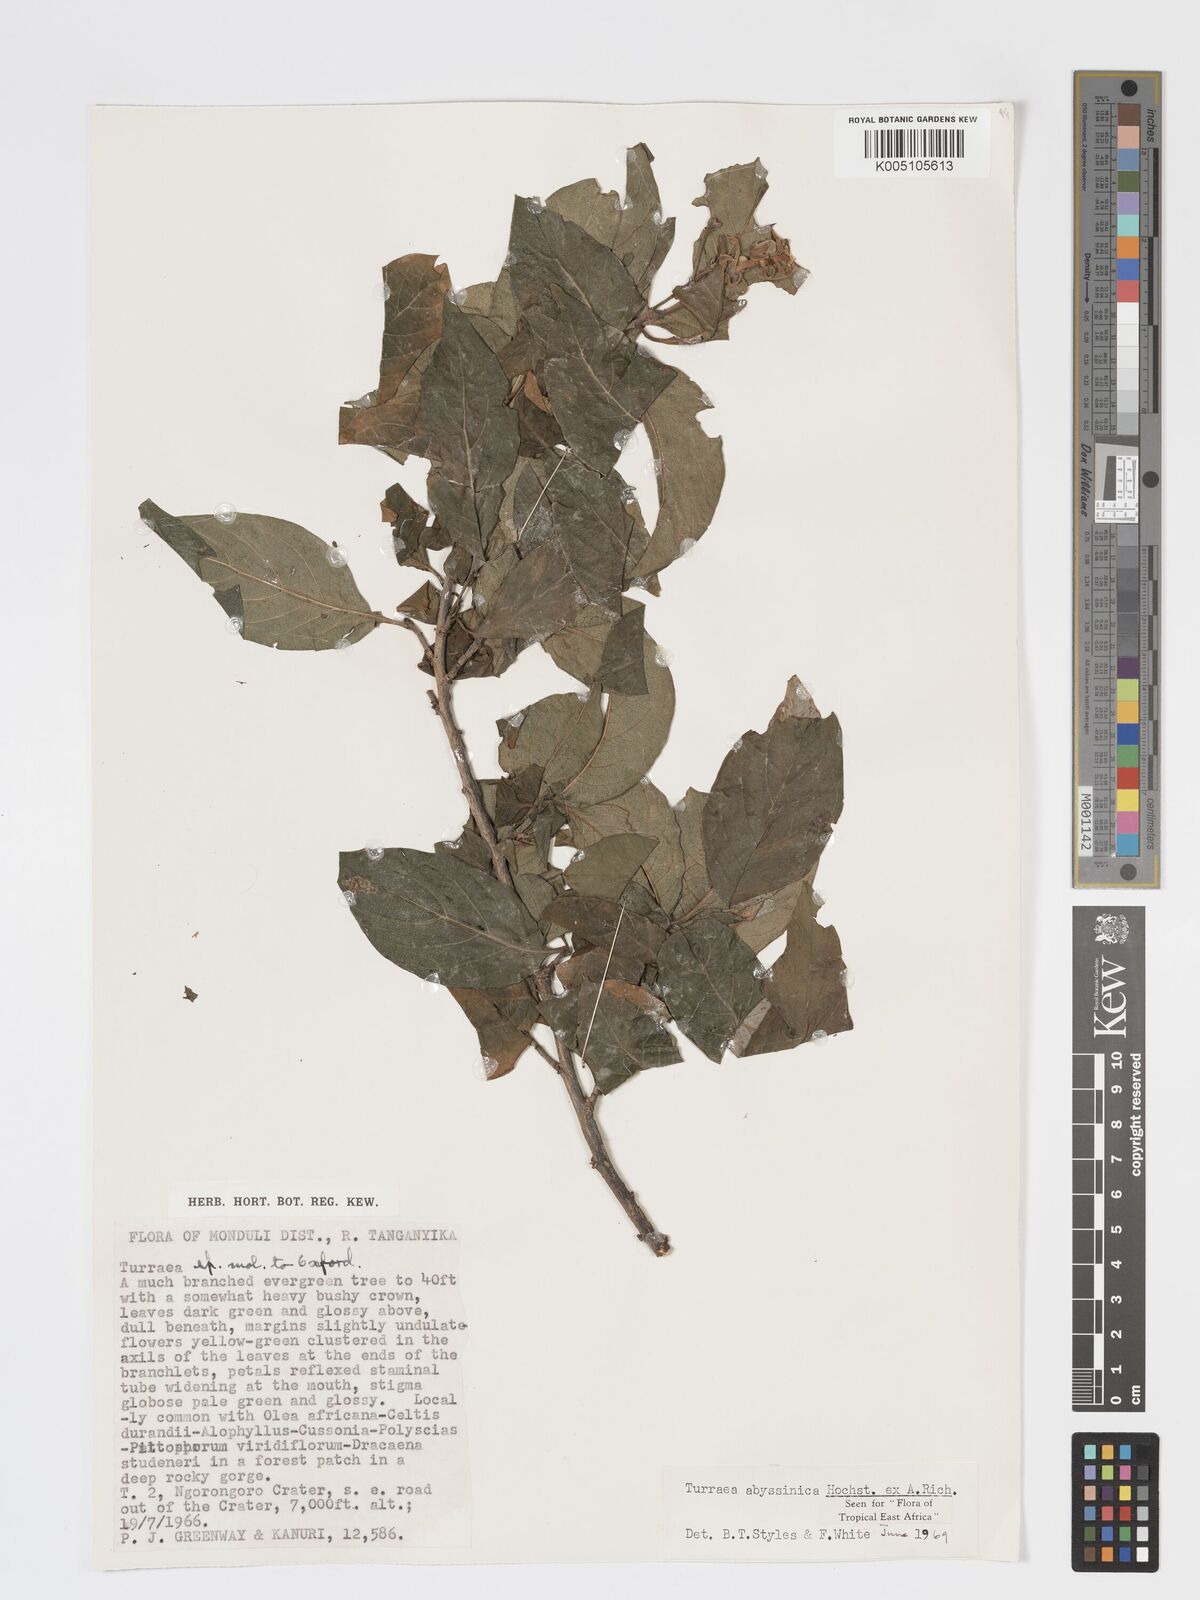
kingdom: Plantae
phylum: Tracheophyta
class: Magnoliopsida
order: Sapindales
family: Meliaceae
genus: Turraea
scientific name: Turraea abyssinica
